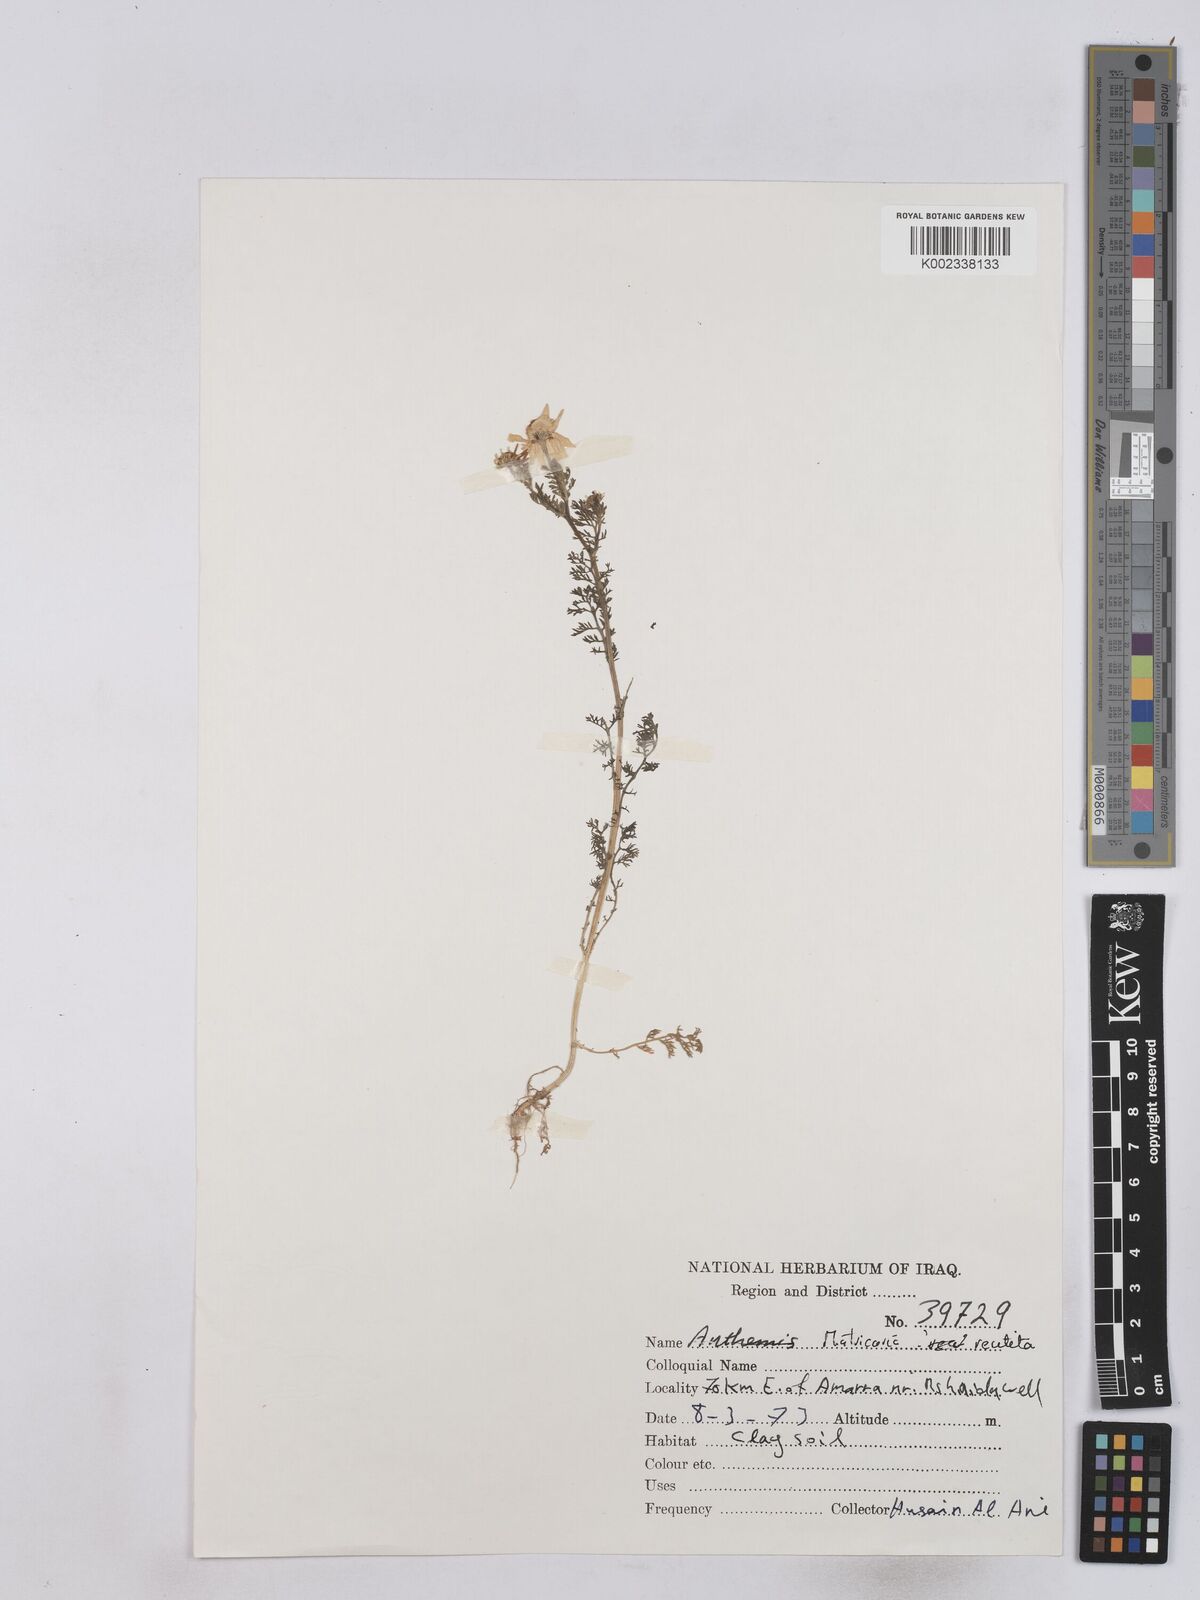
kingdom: Plantae
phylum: Tracheophyta
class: Magnoliopsida
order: Asterales
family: Asteraceae
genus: Matricaria
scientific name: Matricaria chamomilla
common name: Scented mayweed
